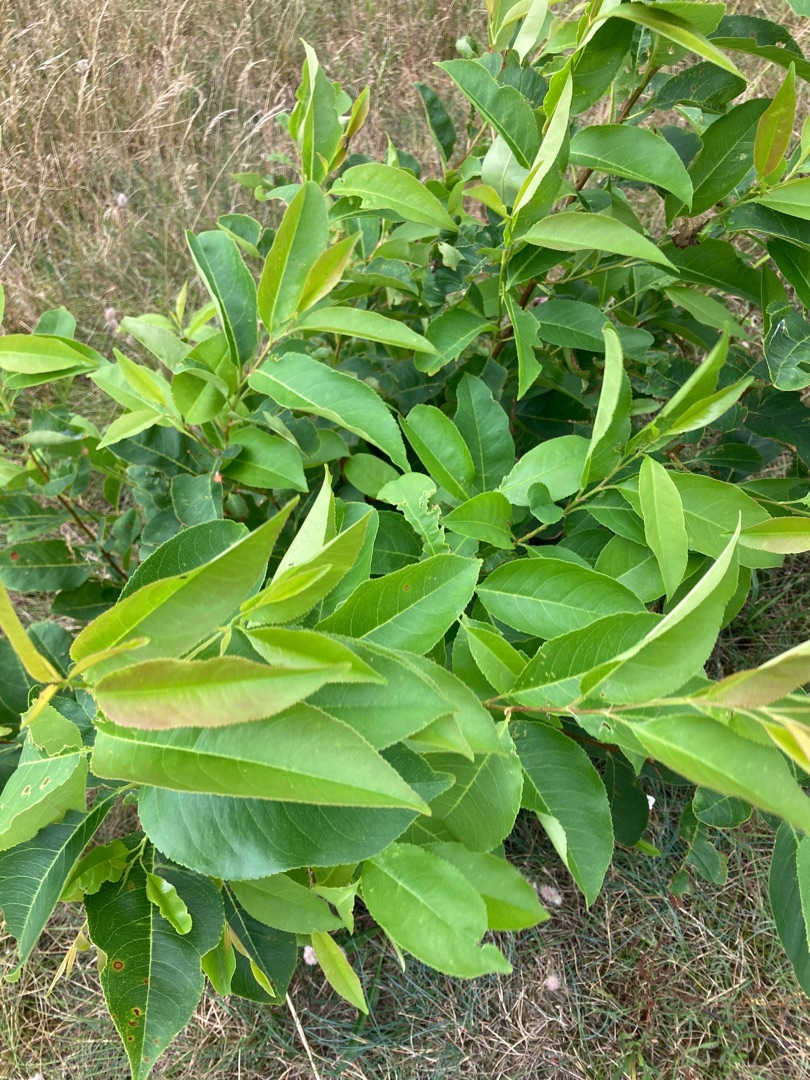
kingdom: Plantae
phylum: Tracheophyta
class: Magnoliopsida
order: Rosales
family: Rosaceae
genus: Prunus
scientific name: Prunus serotina
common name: Glansbladet hæg
